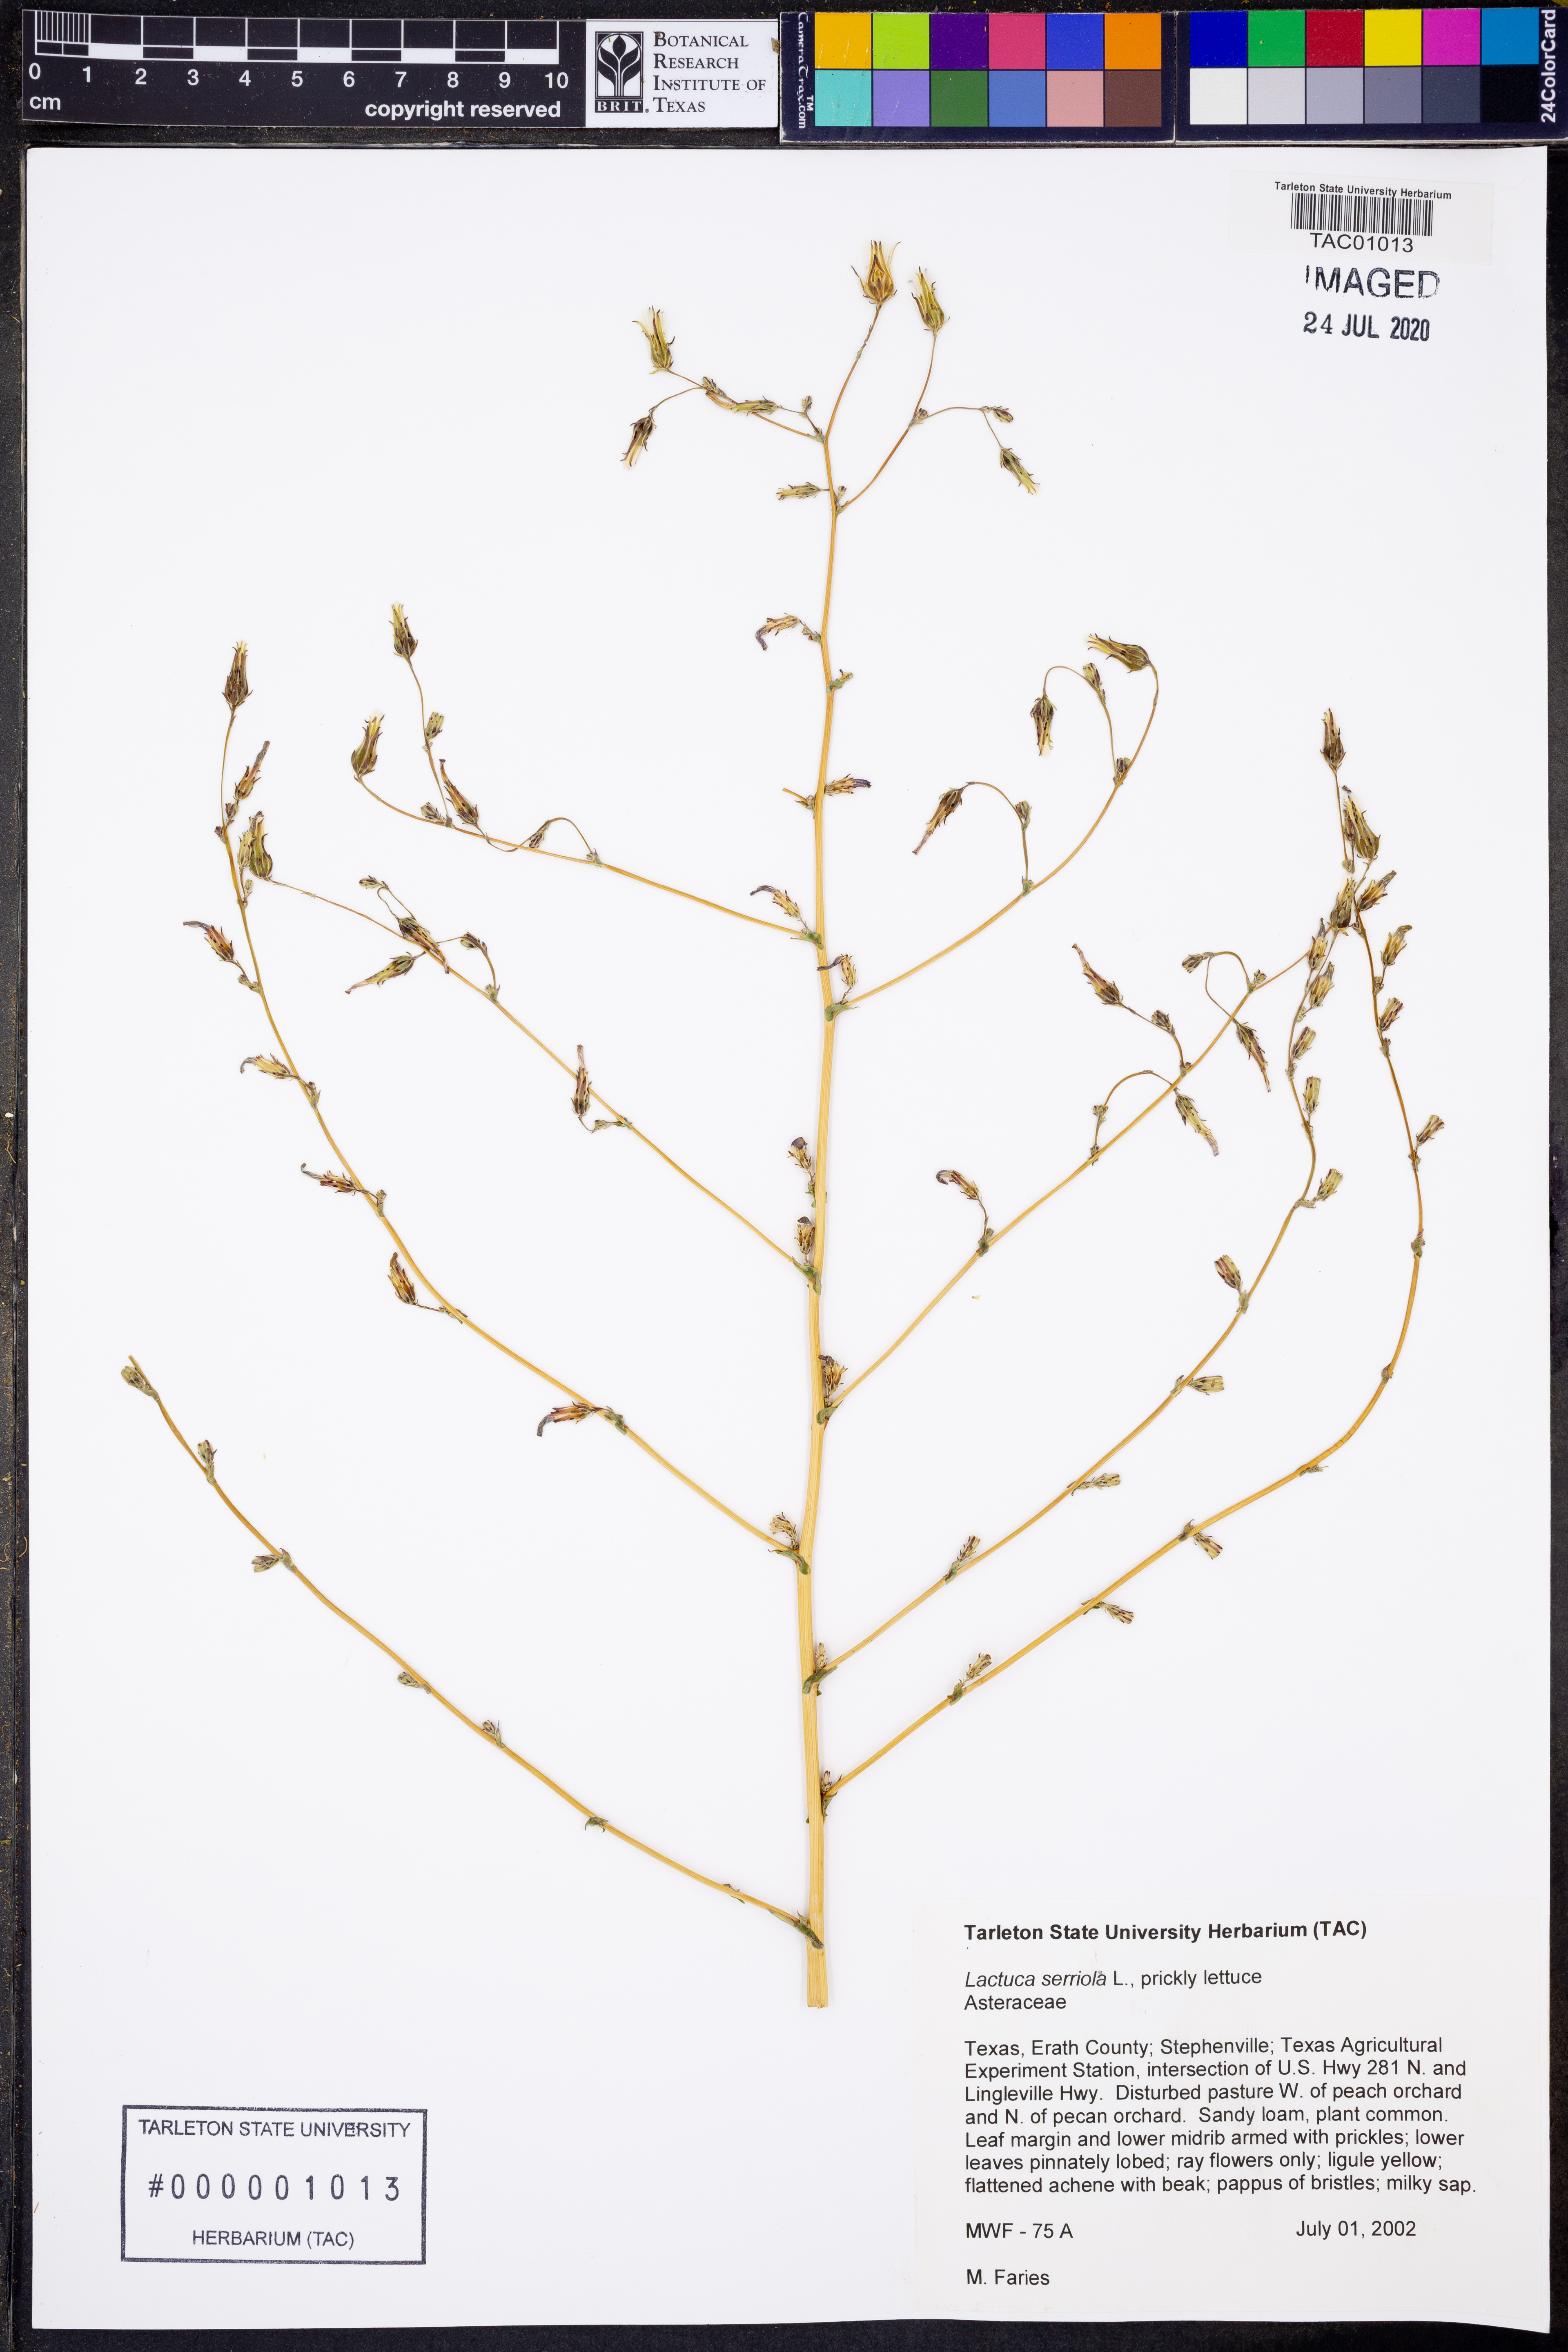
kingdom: Plantae
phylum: Tracheophyta
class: Magnoliopsida
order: Asterales
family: Asteraceae
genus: Lactuca
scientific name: Lactuca serriola
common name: Prickly lettuce
